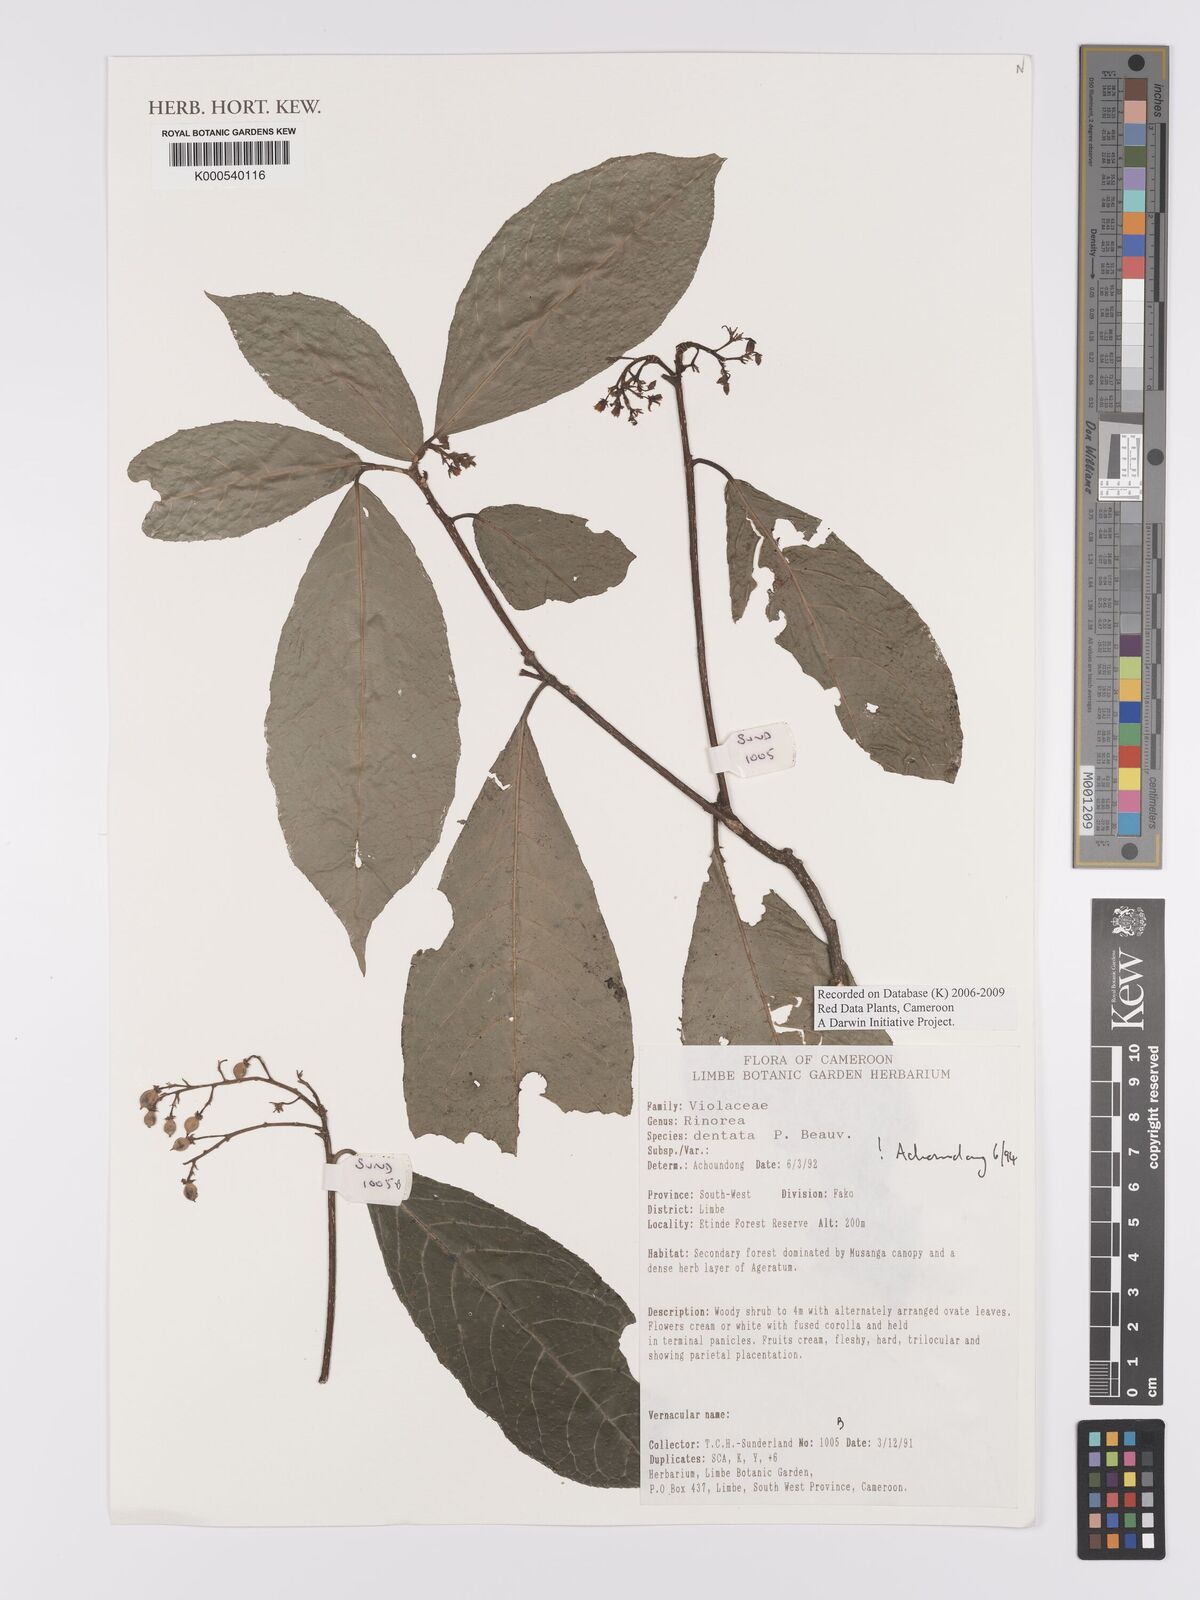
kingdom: Plantae
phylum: Tracheophyta
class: Magnoliopsida
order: Malpighiales
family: Violaceae
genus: Rinorea
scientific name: Rinorea dentata
